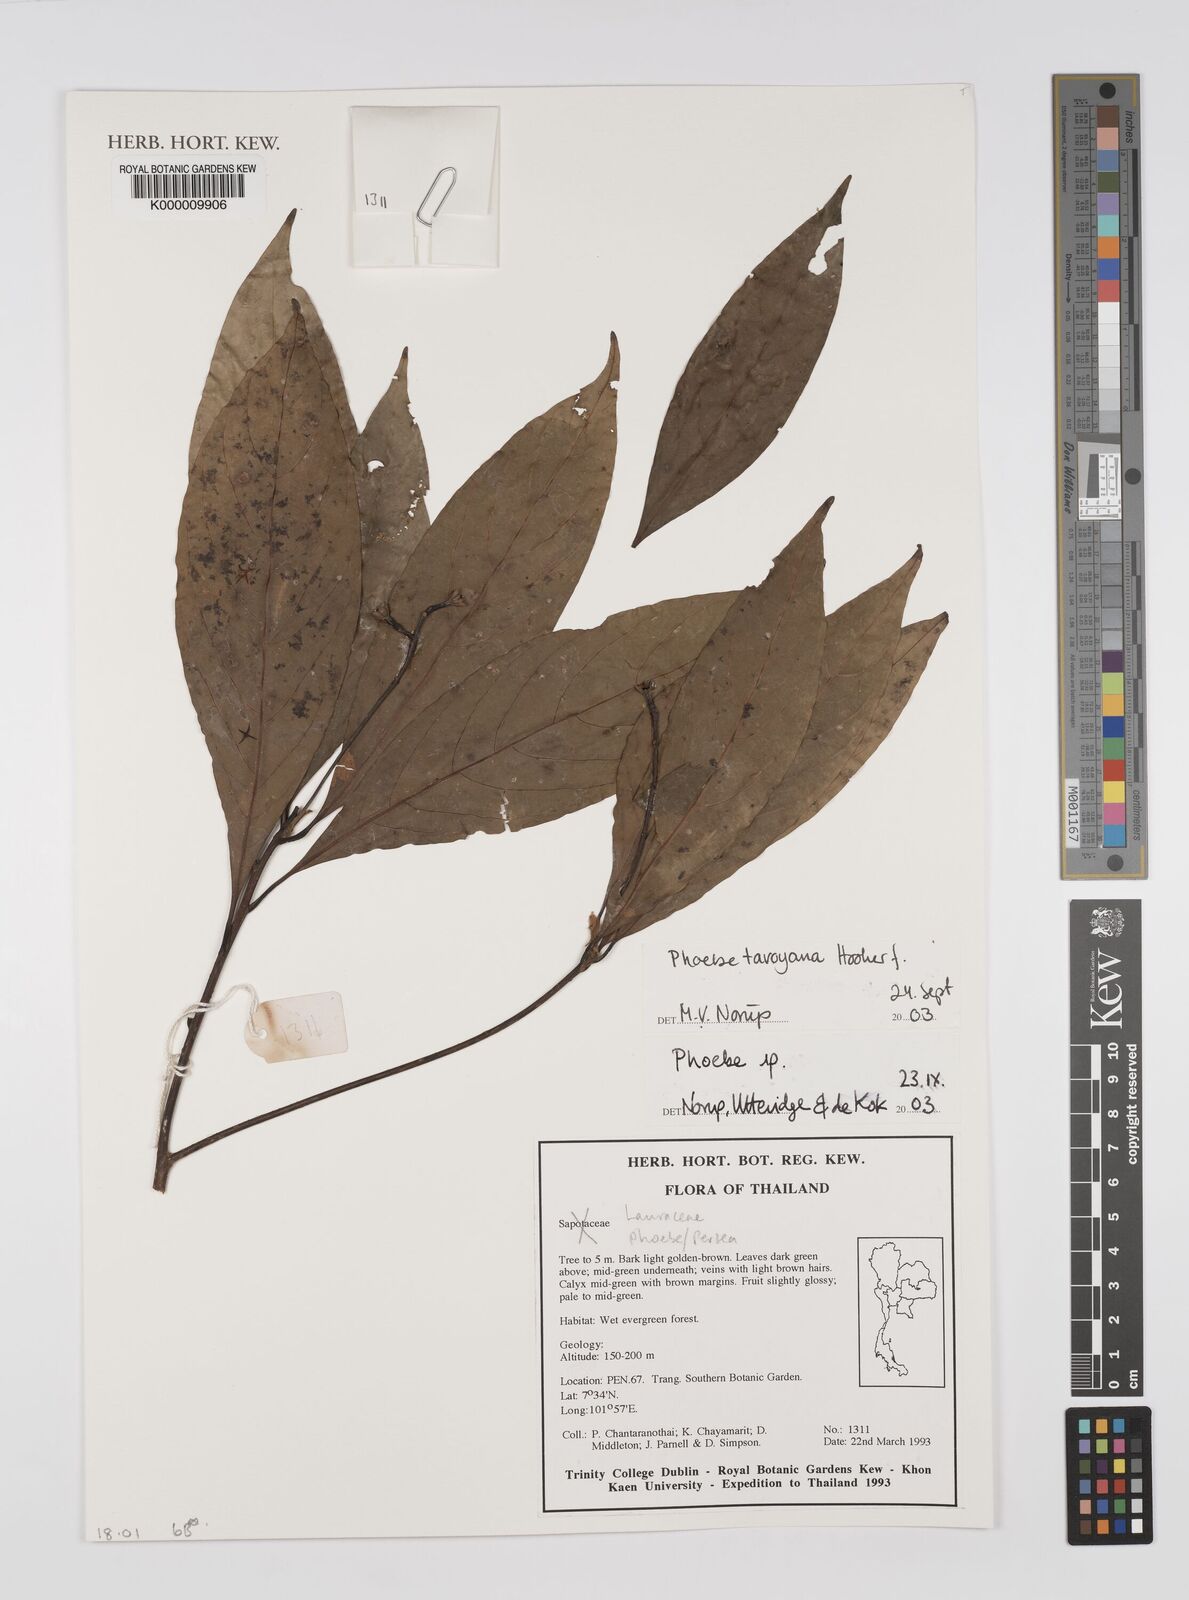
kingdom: Plantae
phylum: Tracheophyta
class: Magnoliopsida
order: Laurales
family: Lauraceae
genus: Phoebe
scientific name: Phoebe
